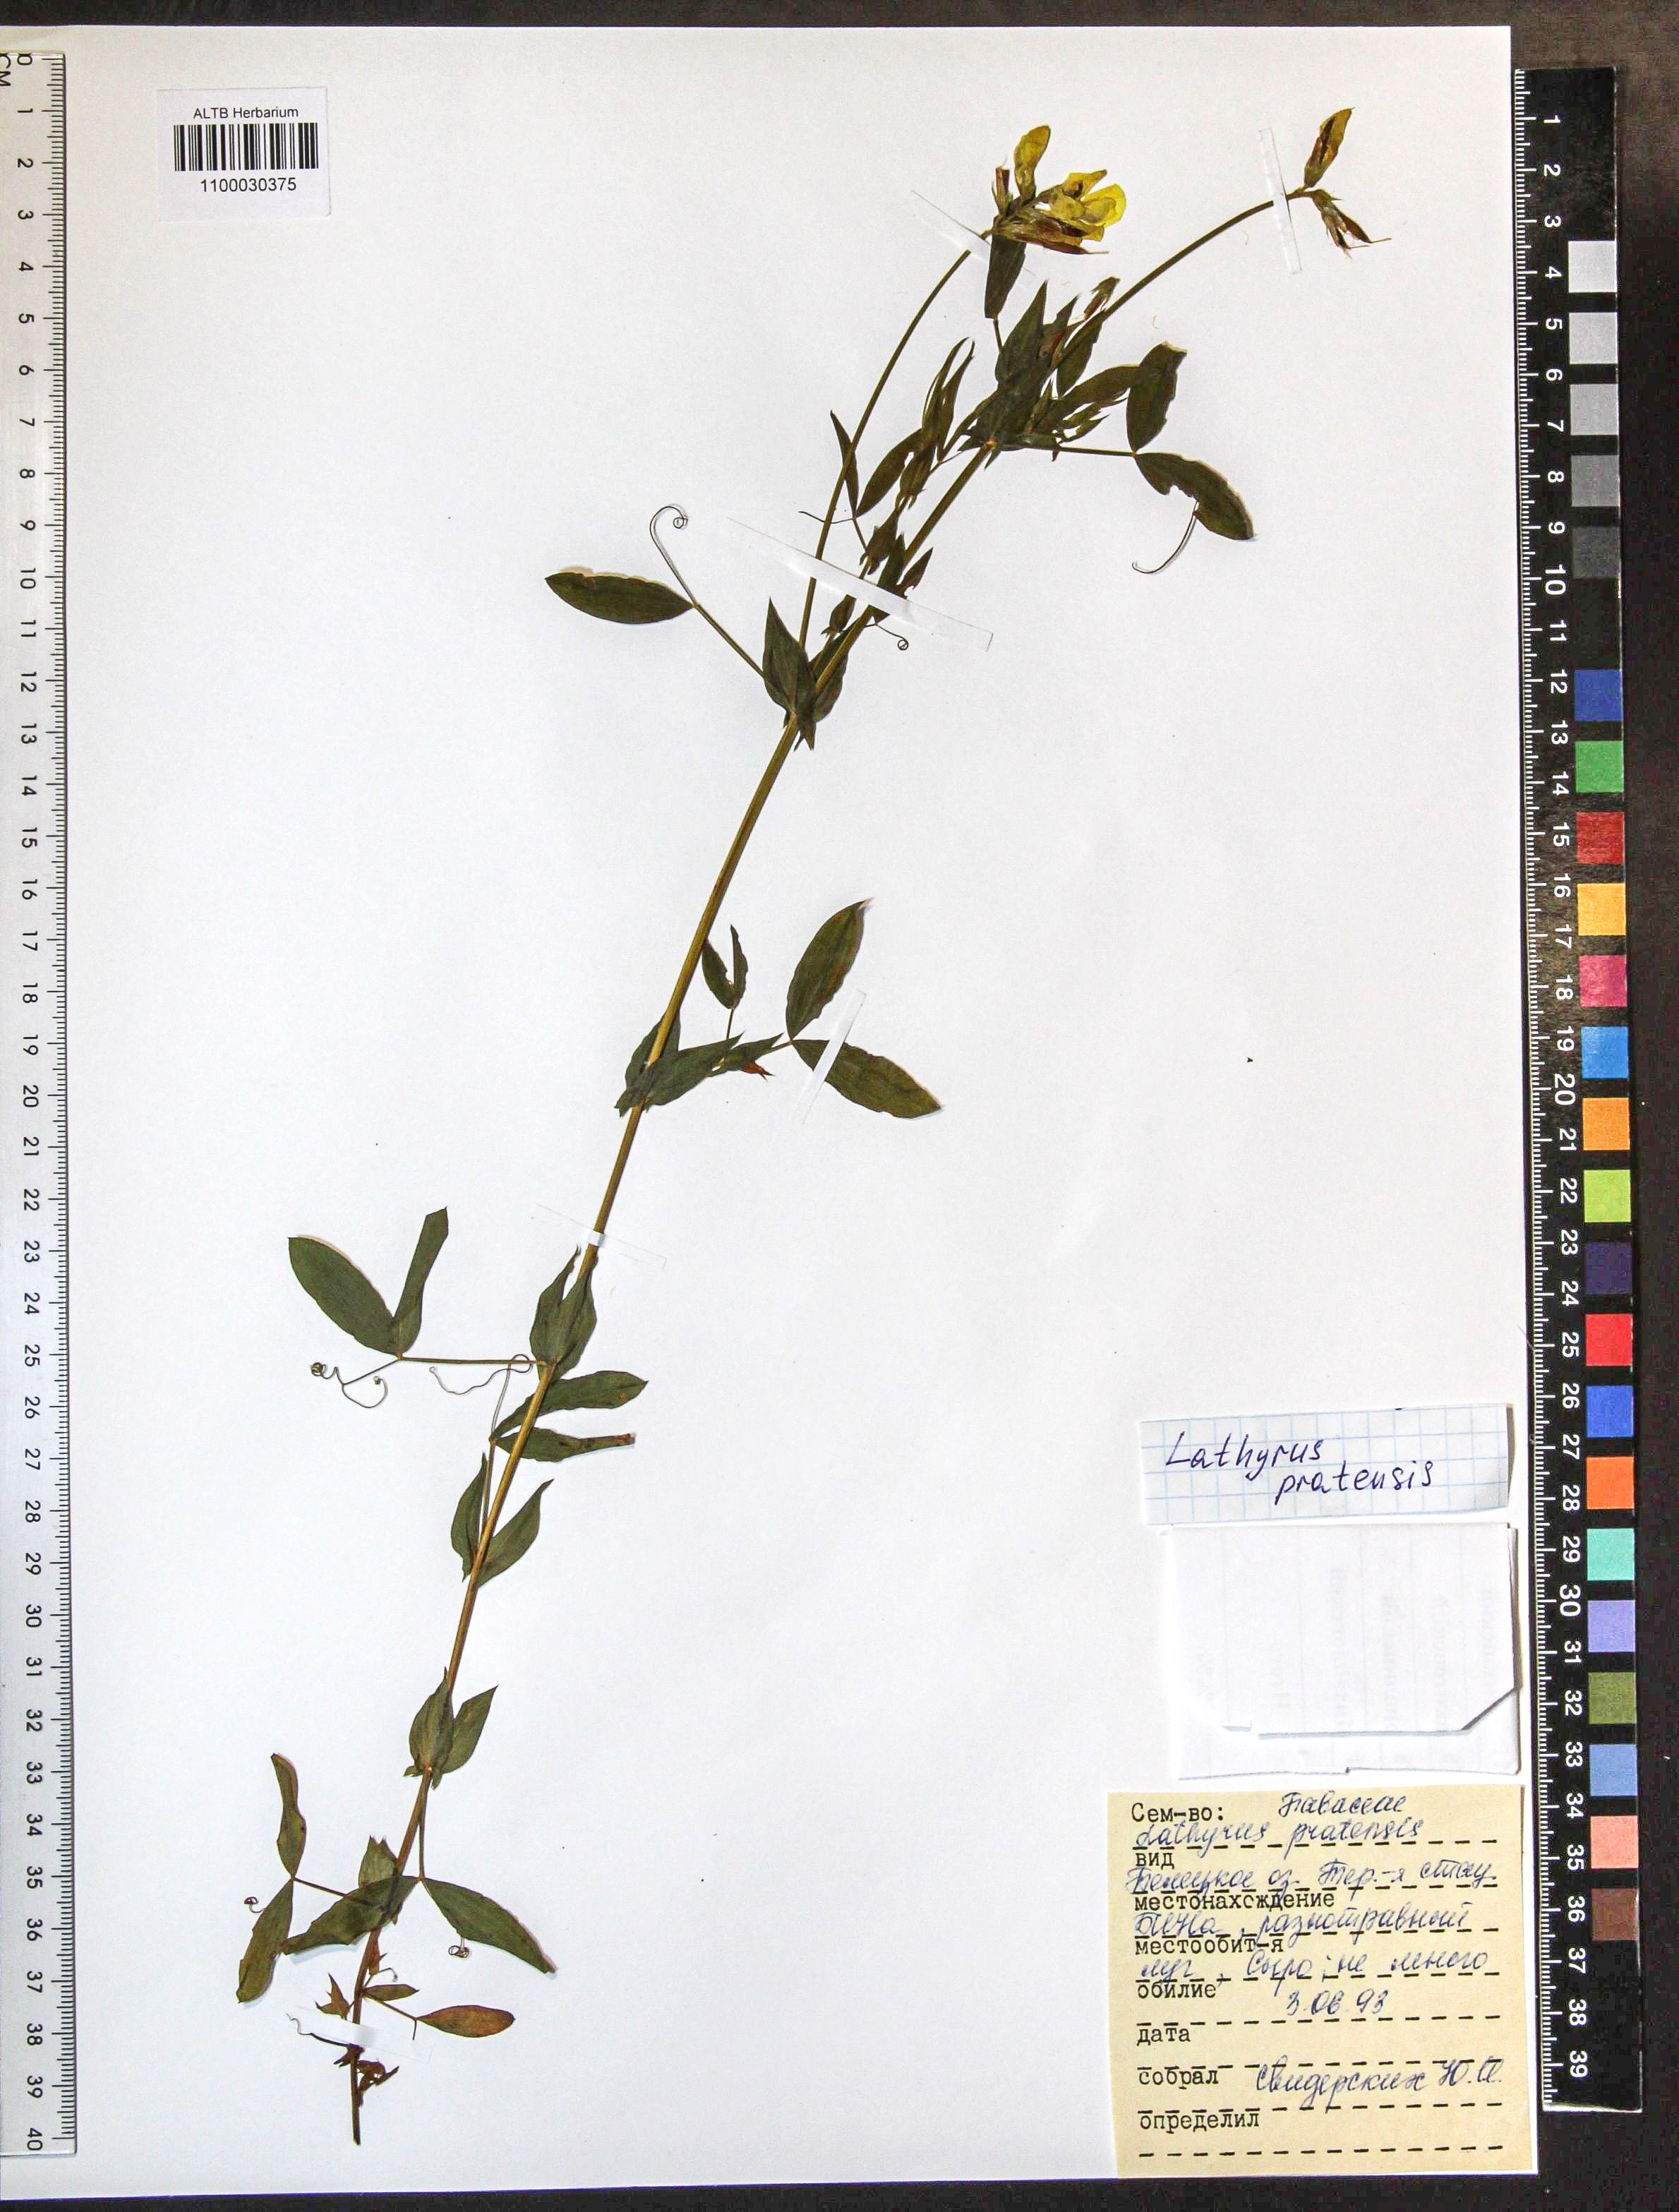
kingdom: Plantae
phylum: Tracheophyta
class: Magnoliopsida
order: Fabales
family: Fabaceae
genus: Lathyrus
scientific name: Lathyrus pratensis
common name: Meadow vetchling
